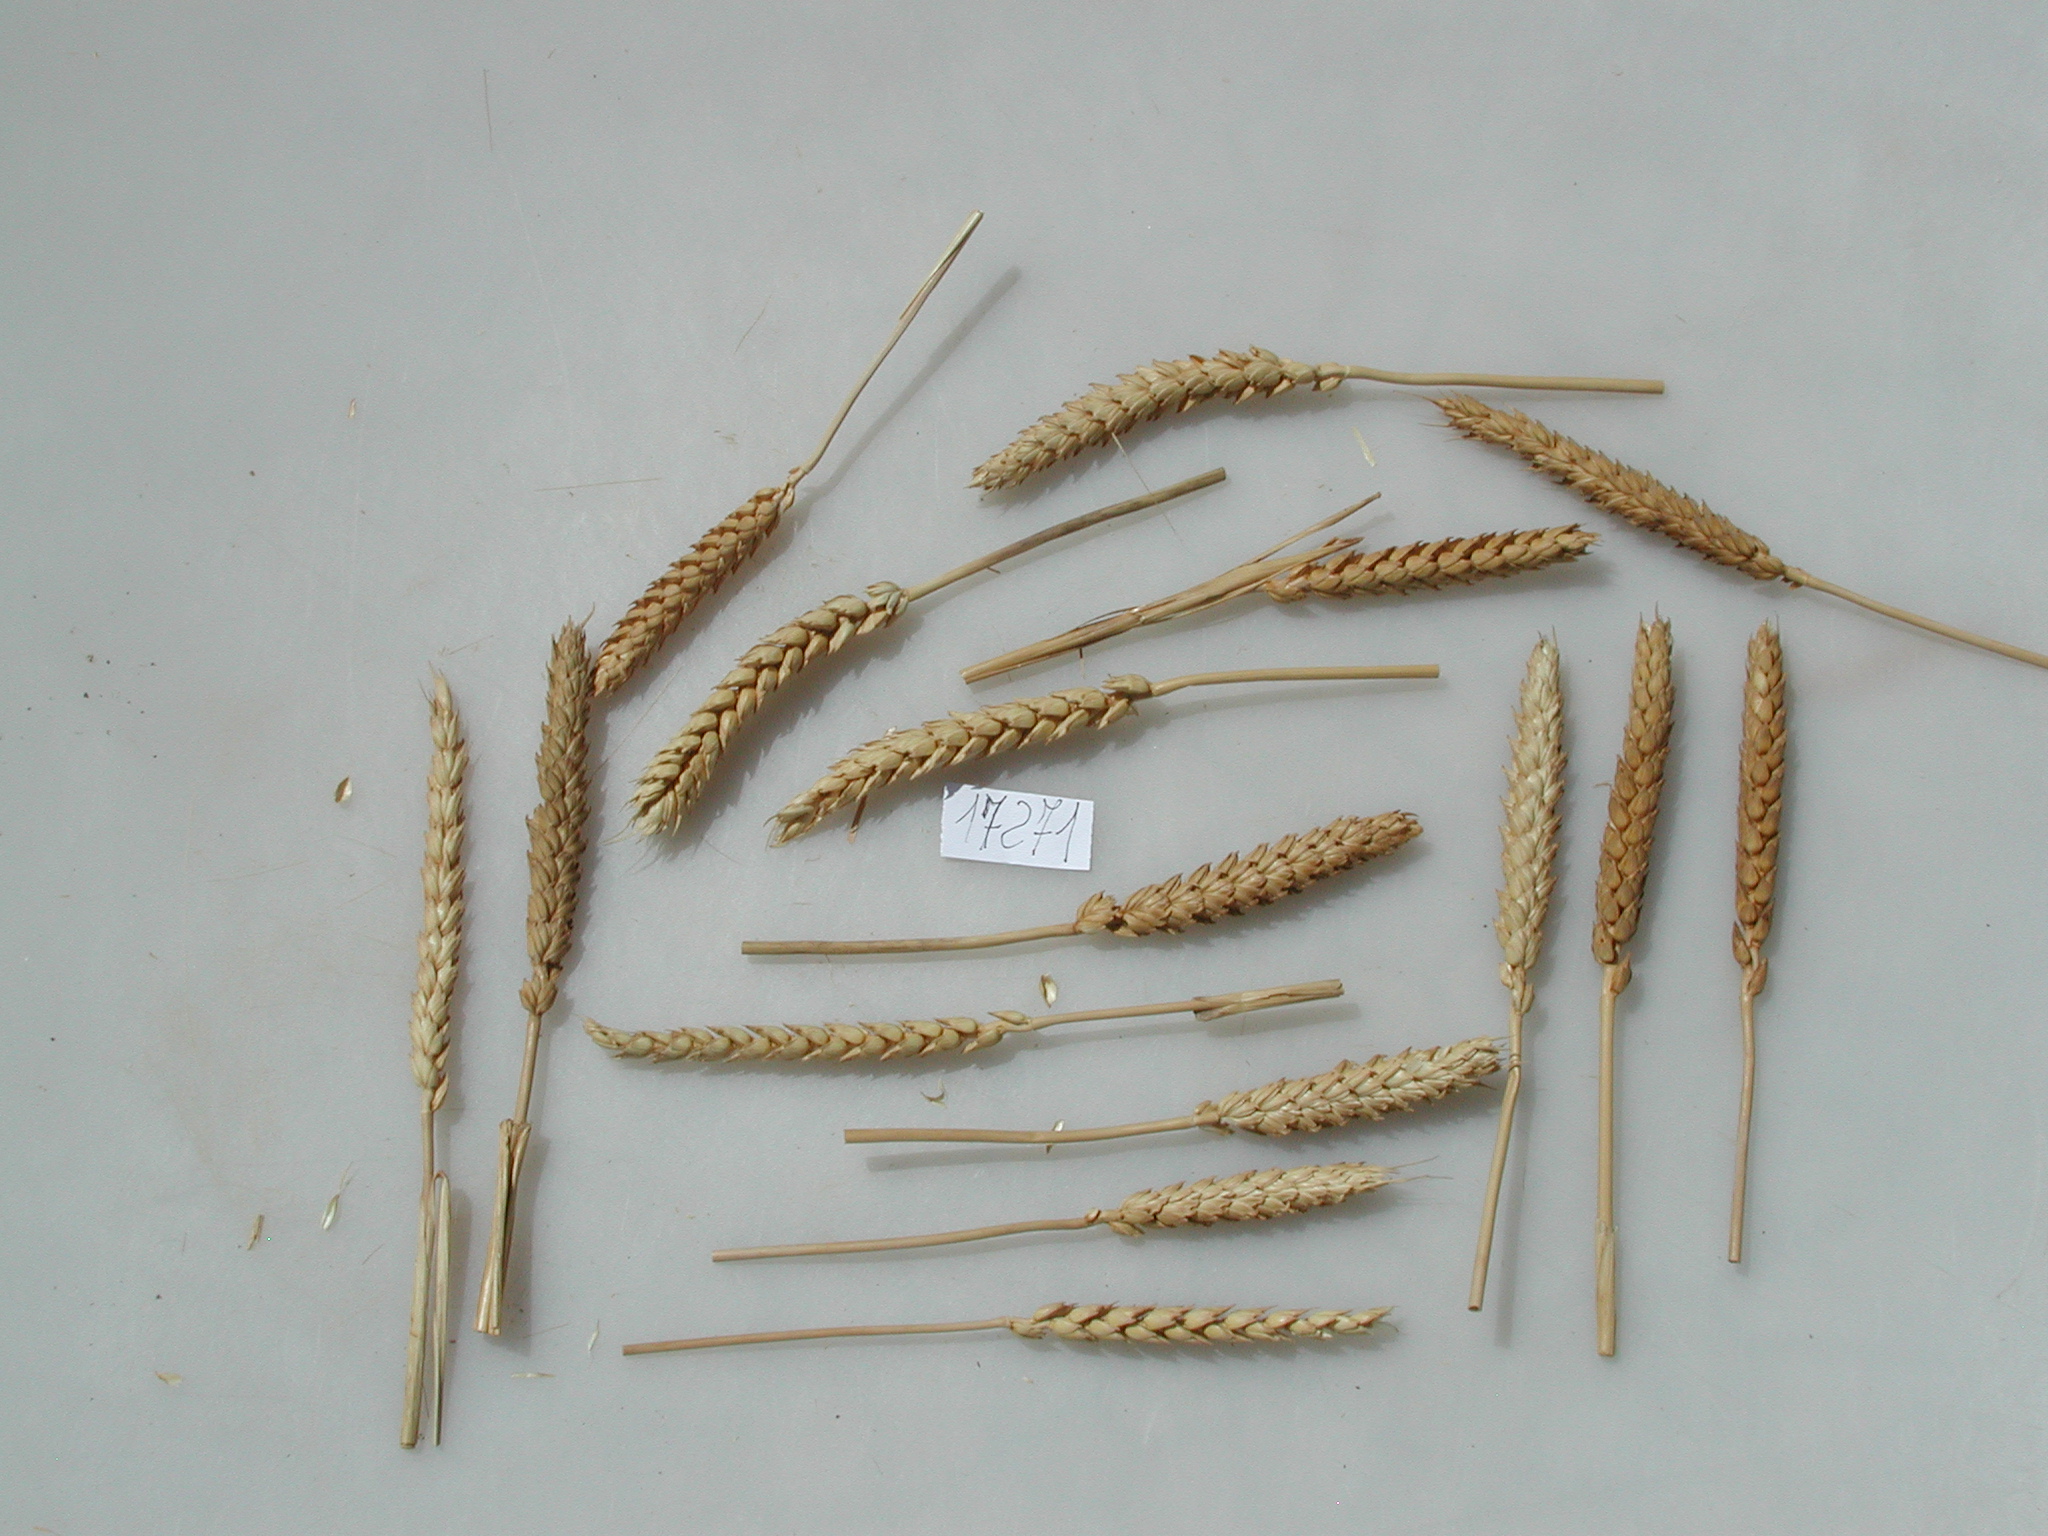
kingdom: Plantae
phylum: Tracheophyta
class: Liliopsida
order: Poales
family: Poaceae
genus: Triticum
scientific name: Triticum
